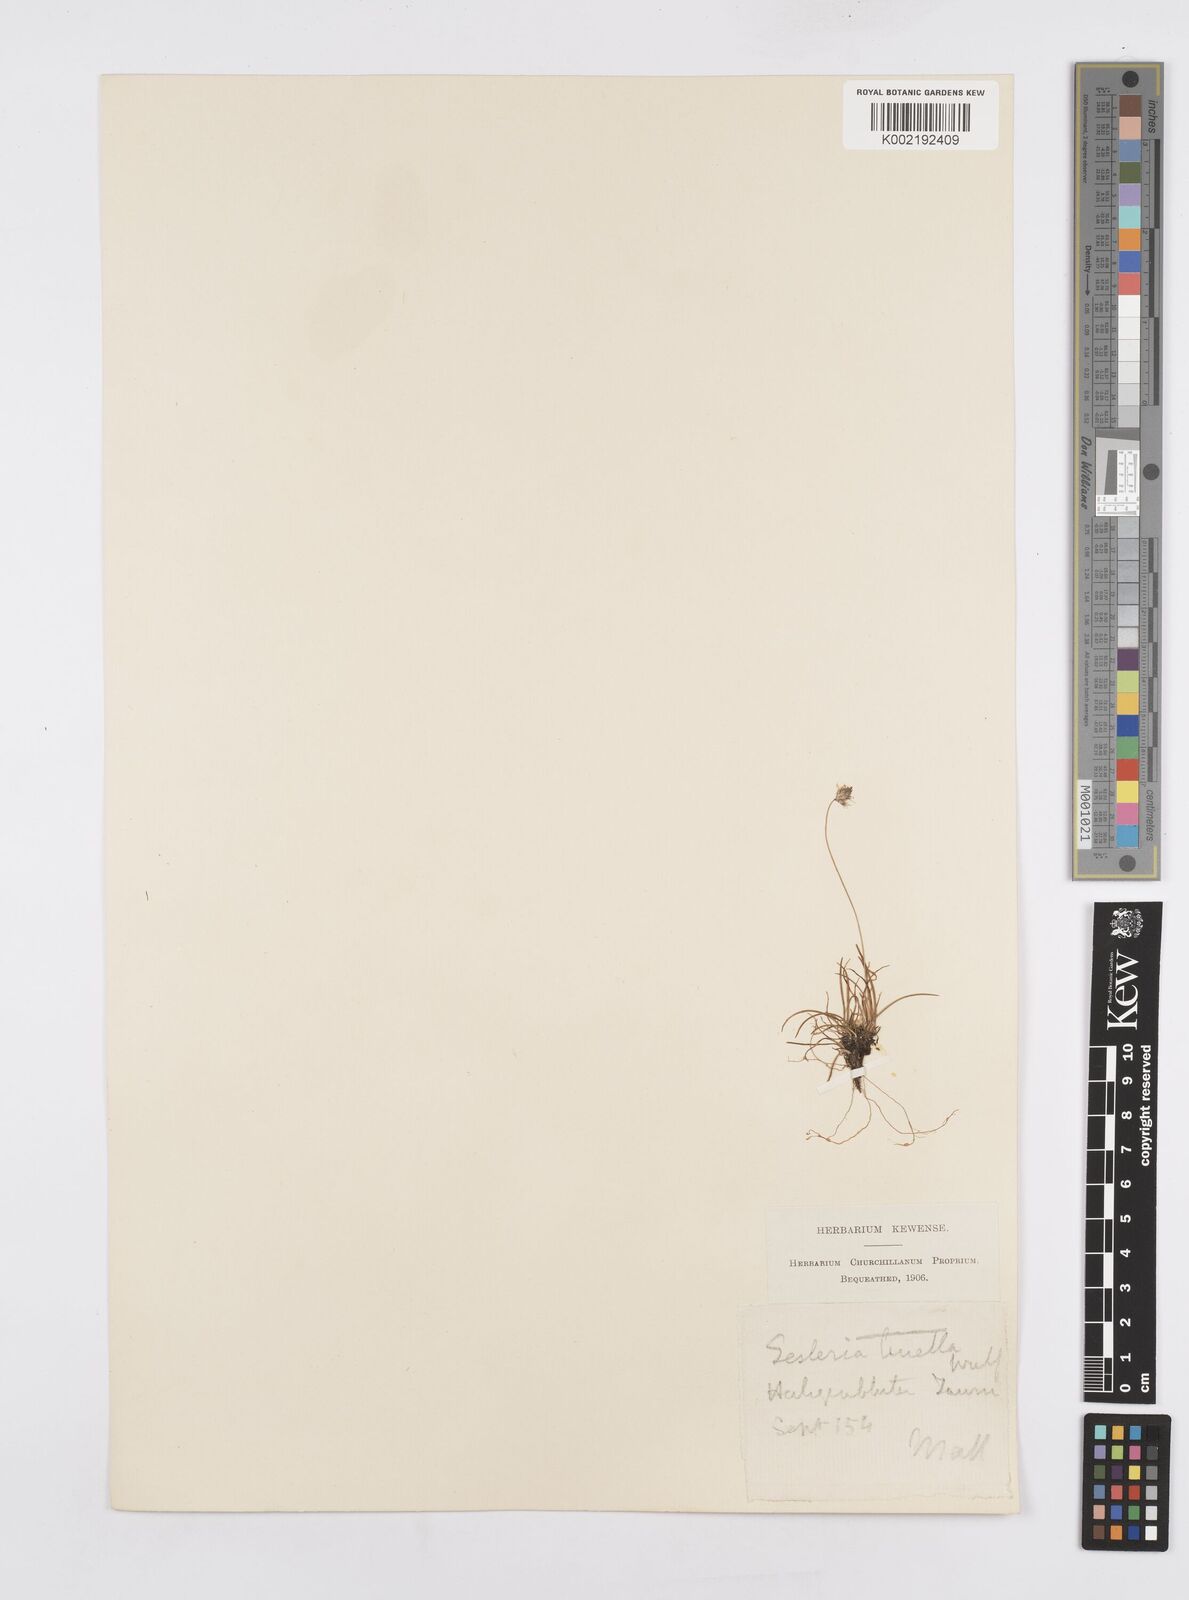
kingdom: Plantae
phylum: Tracheophyta
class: Liliopsida
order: Poales
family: Poaceae
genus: Psilathera
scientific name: Psilathera ovata
